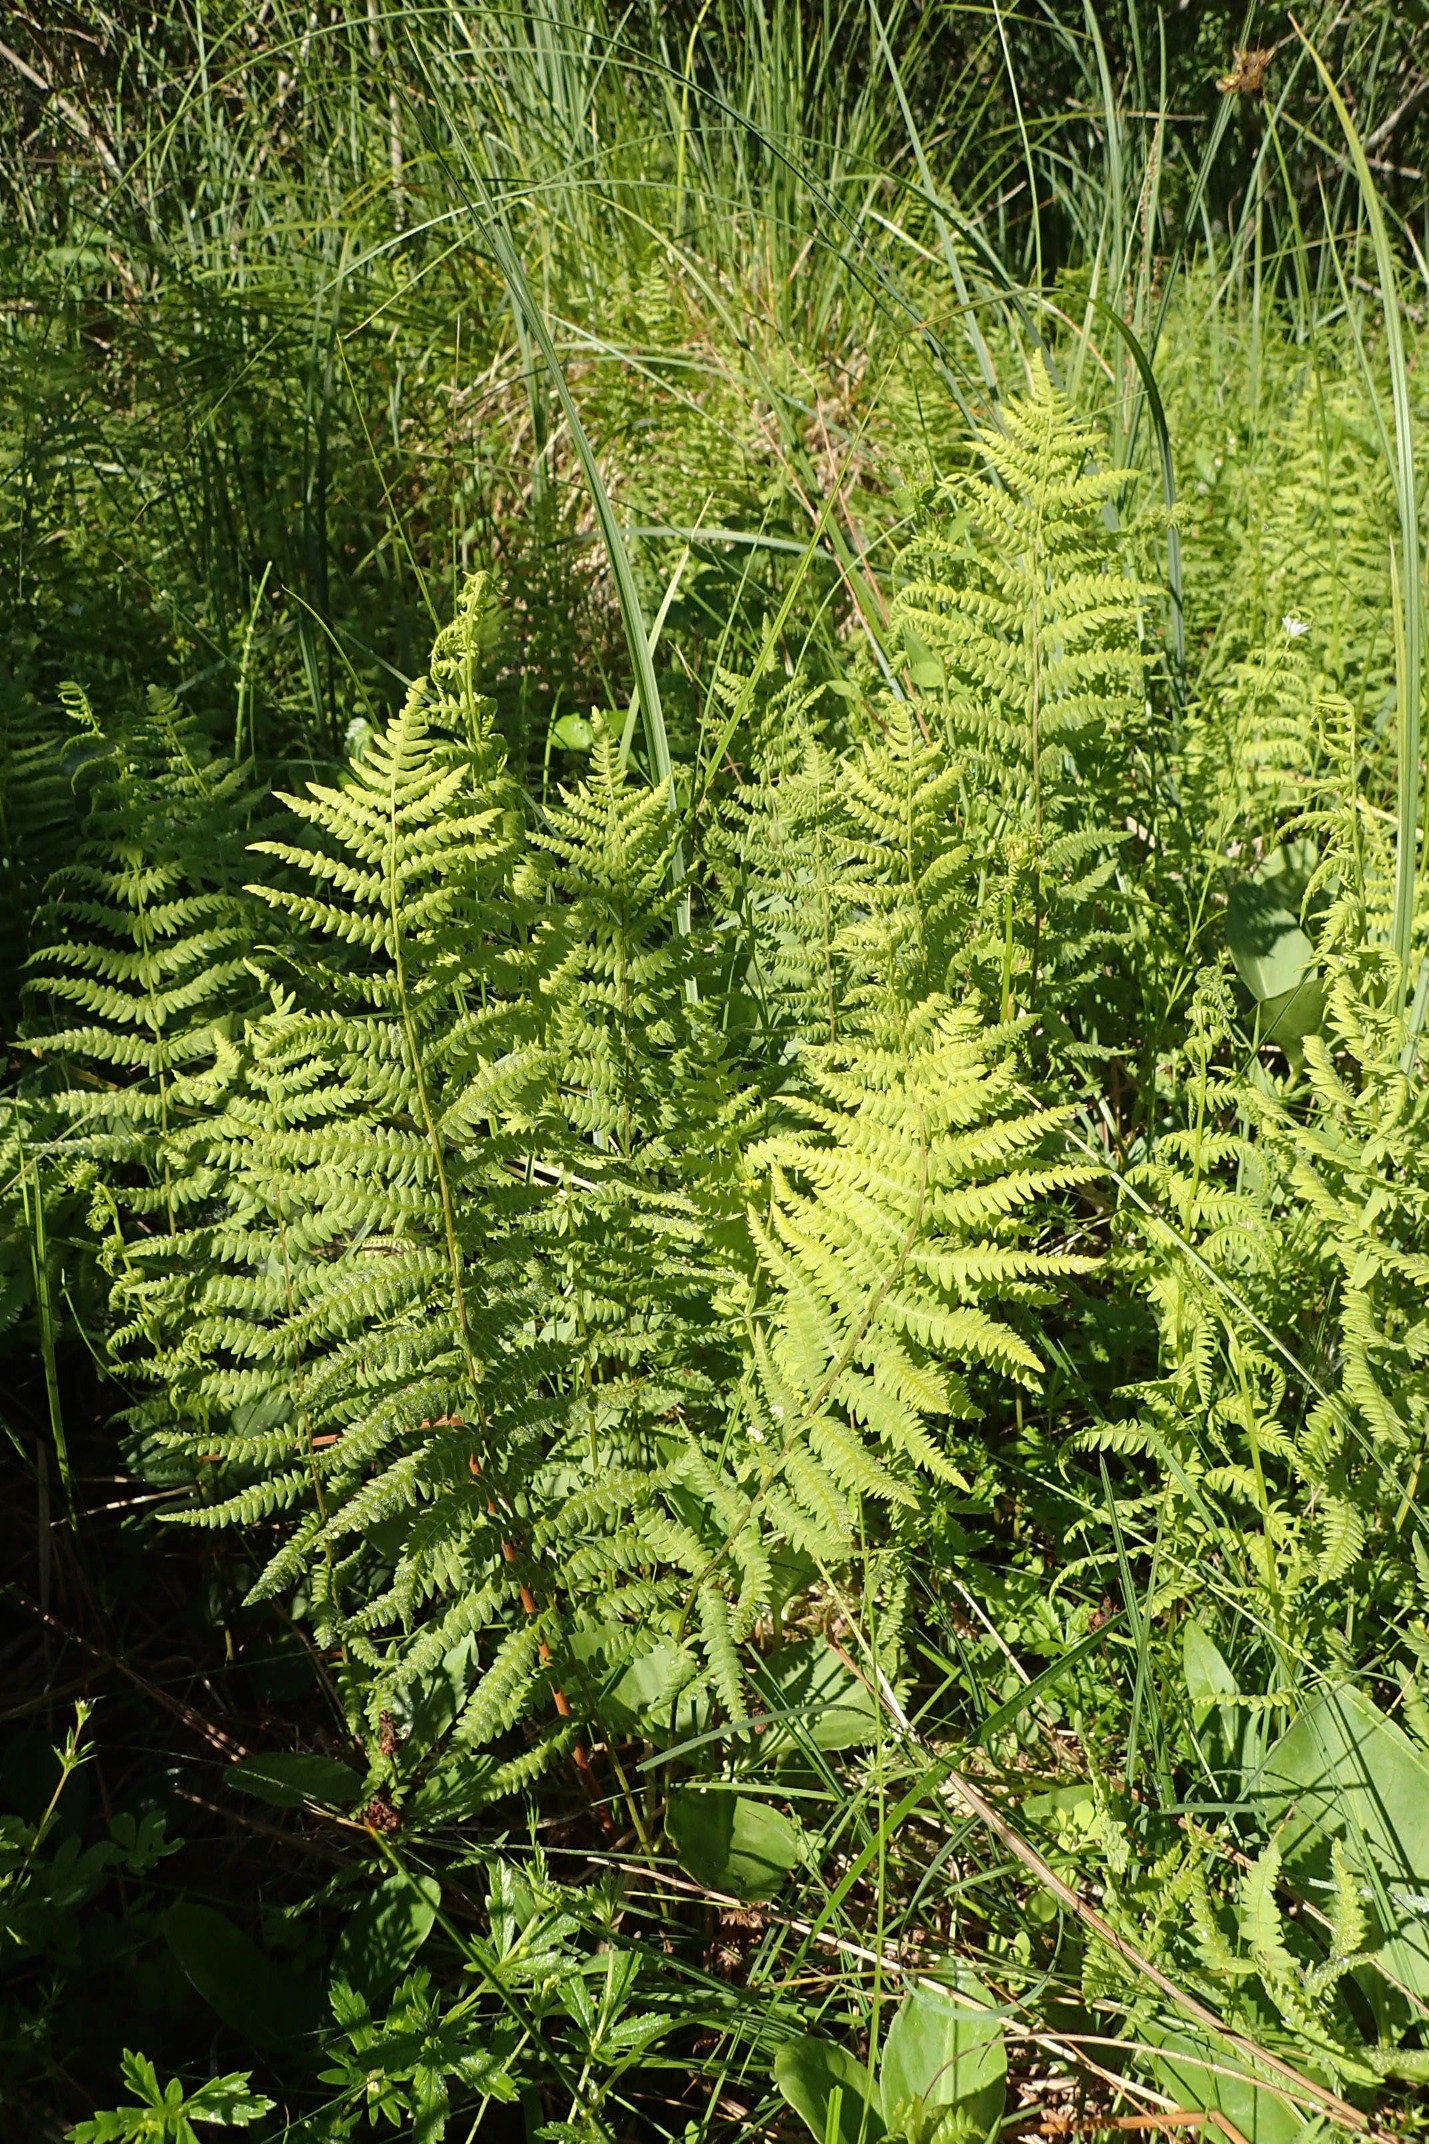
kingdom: Plantae
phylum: Tracheophyta
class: Polypodiopsida
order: Polypodiales
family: Thelypteridaceae
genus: Thelypteris
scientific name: Thelypteris palustris
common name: Kærmangeløv
